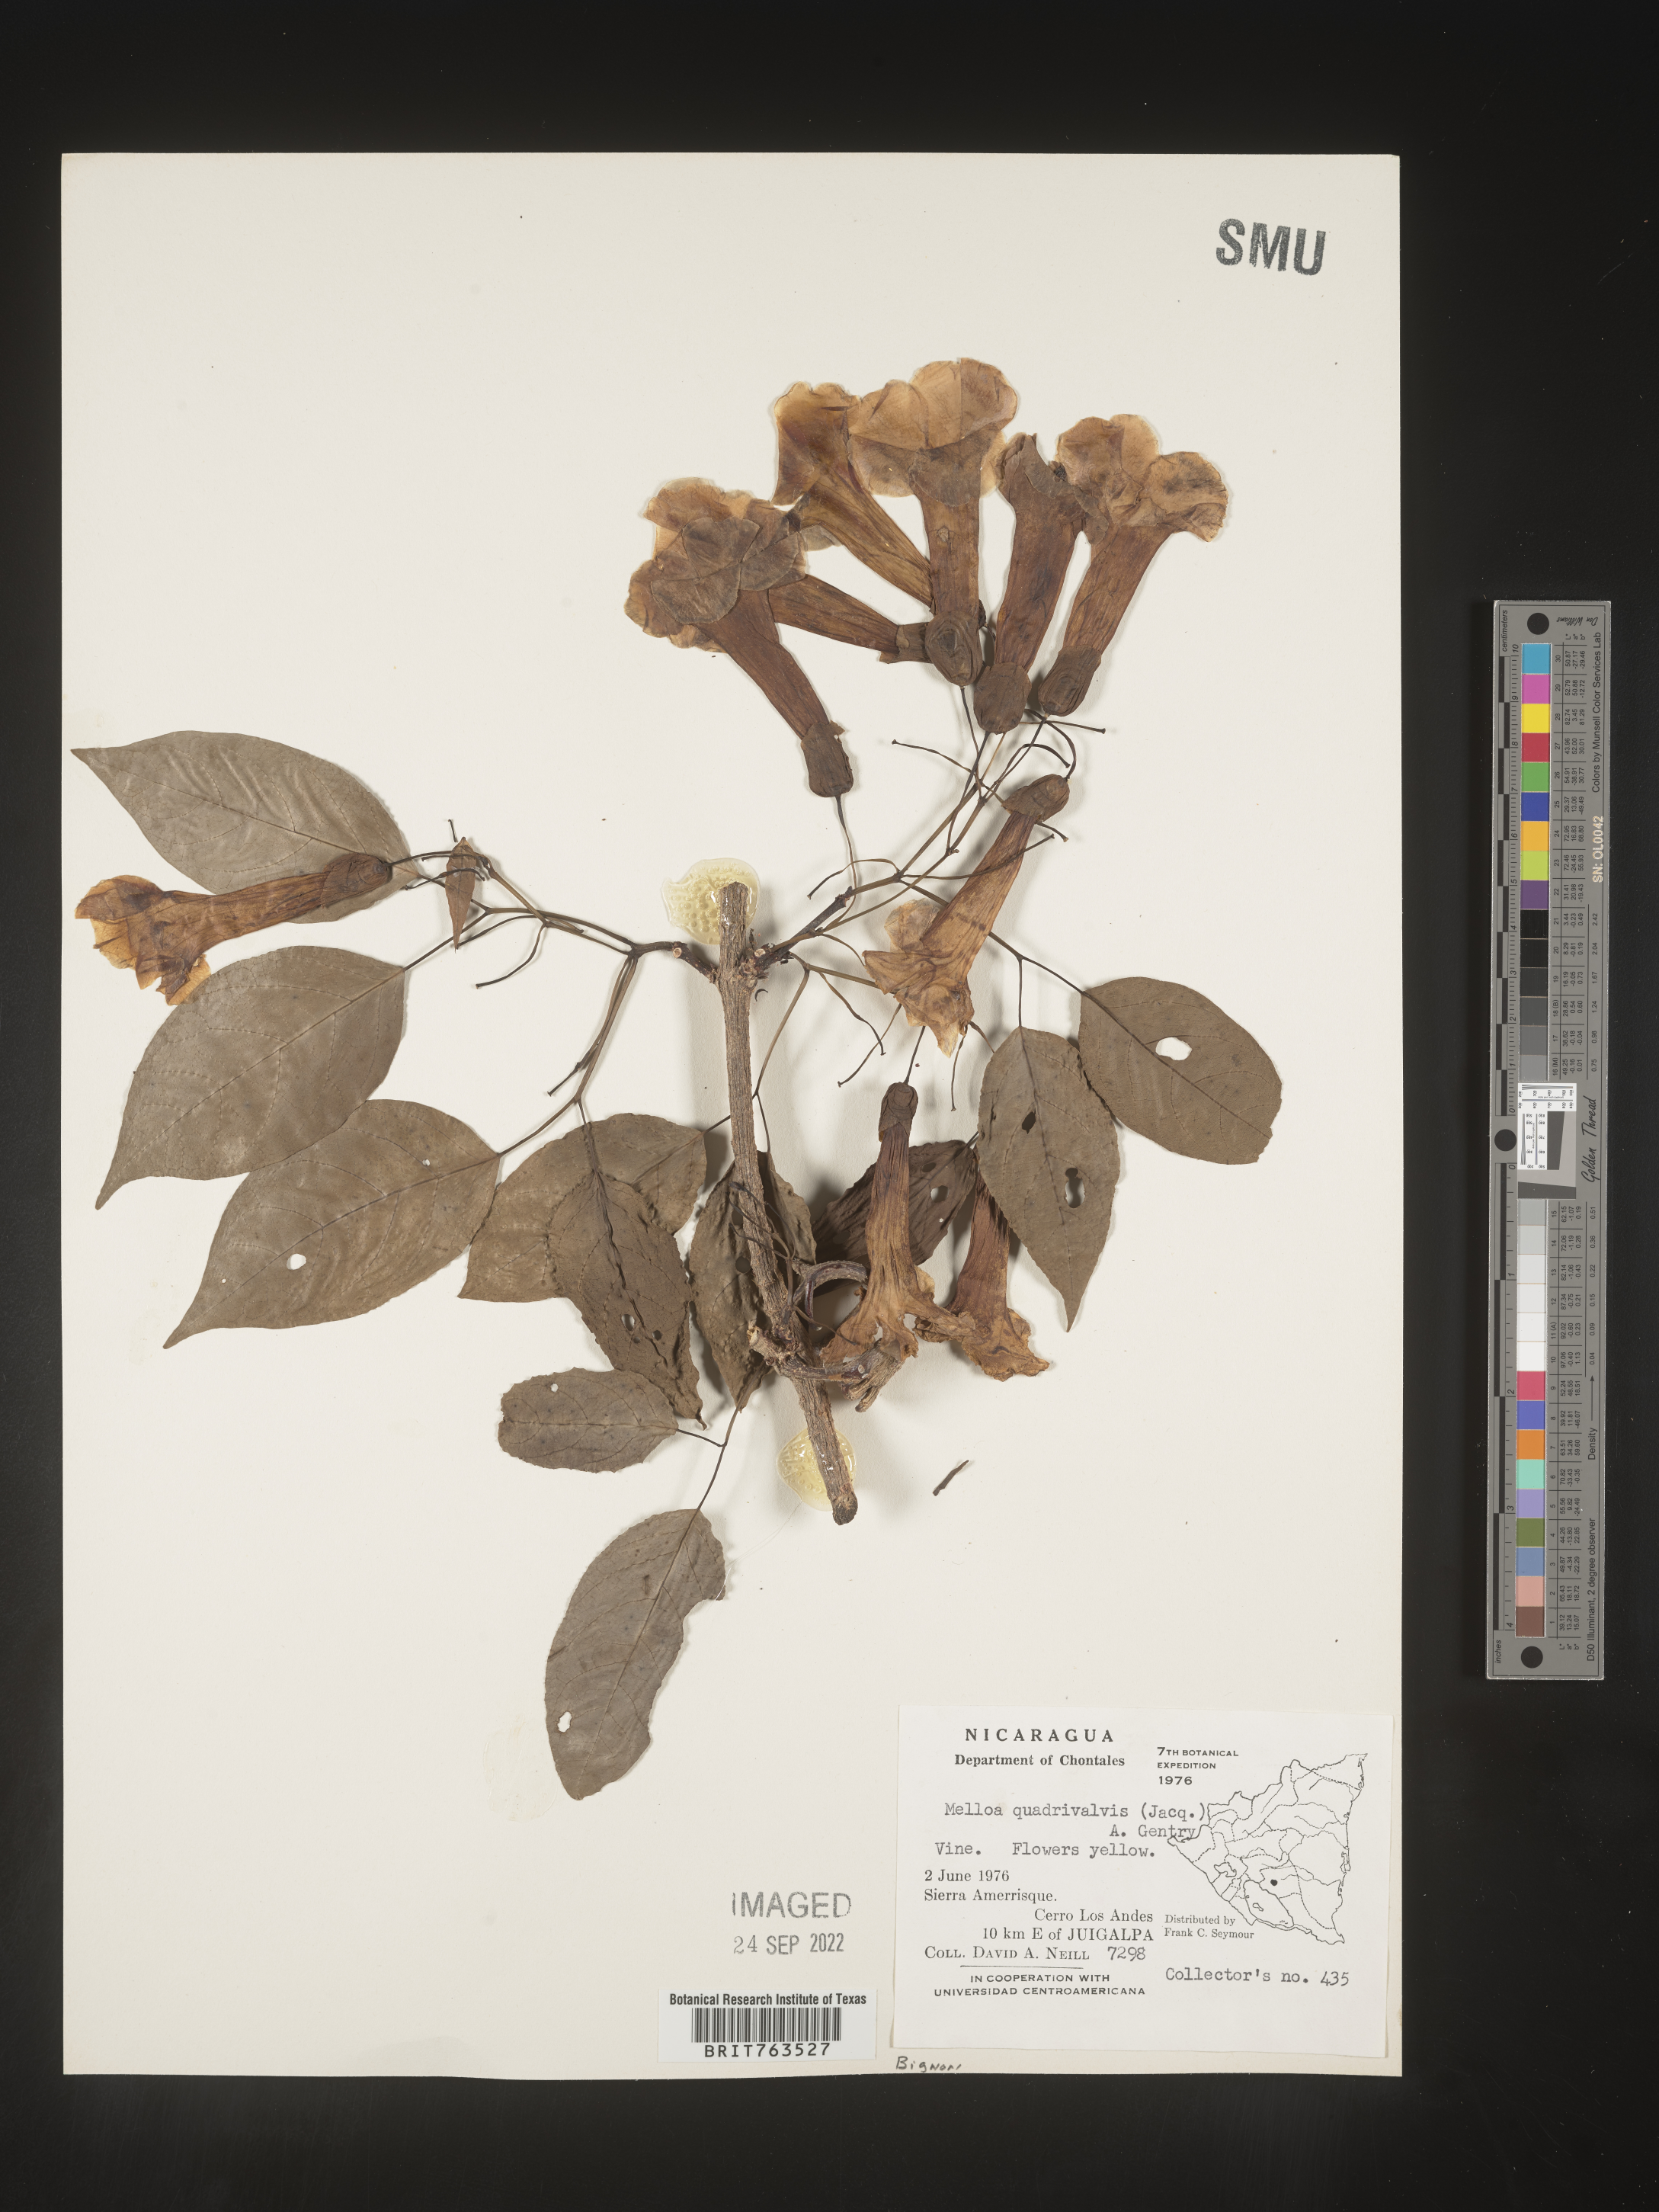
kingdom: Plantae
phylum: Tracheophyta
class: Magnoliopsida
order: Lamiales
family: Bignoniaceae
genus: Dolichandra
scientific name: Dolichandra
